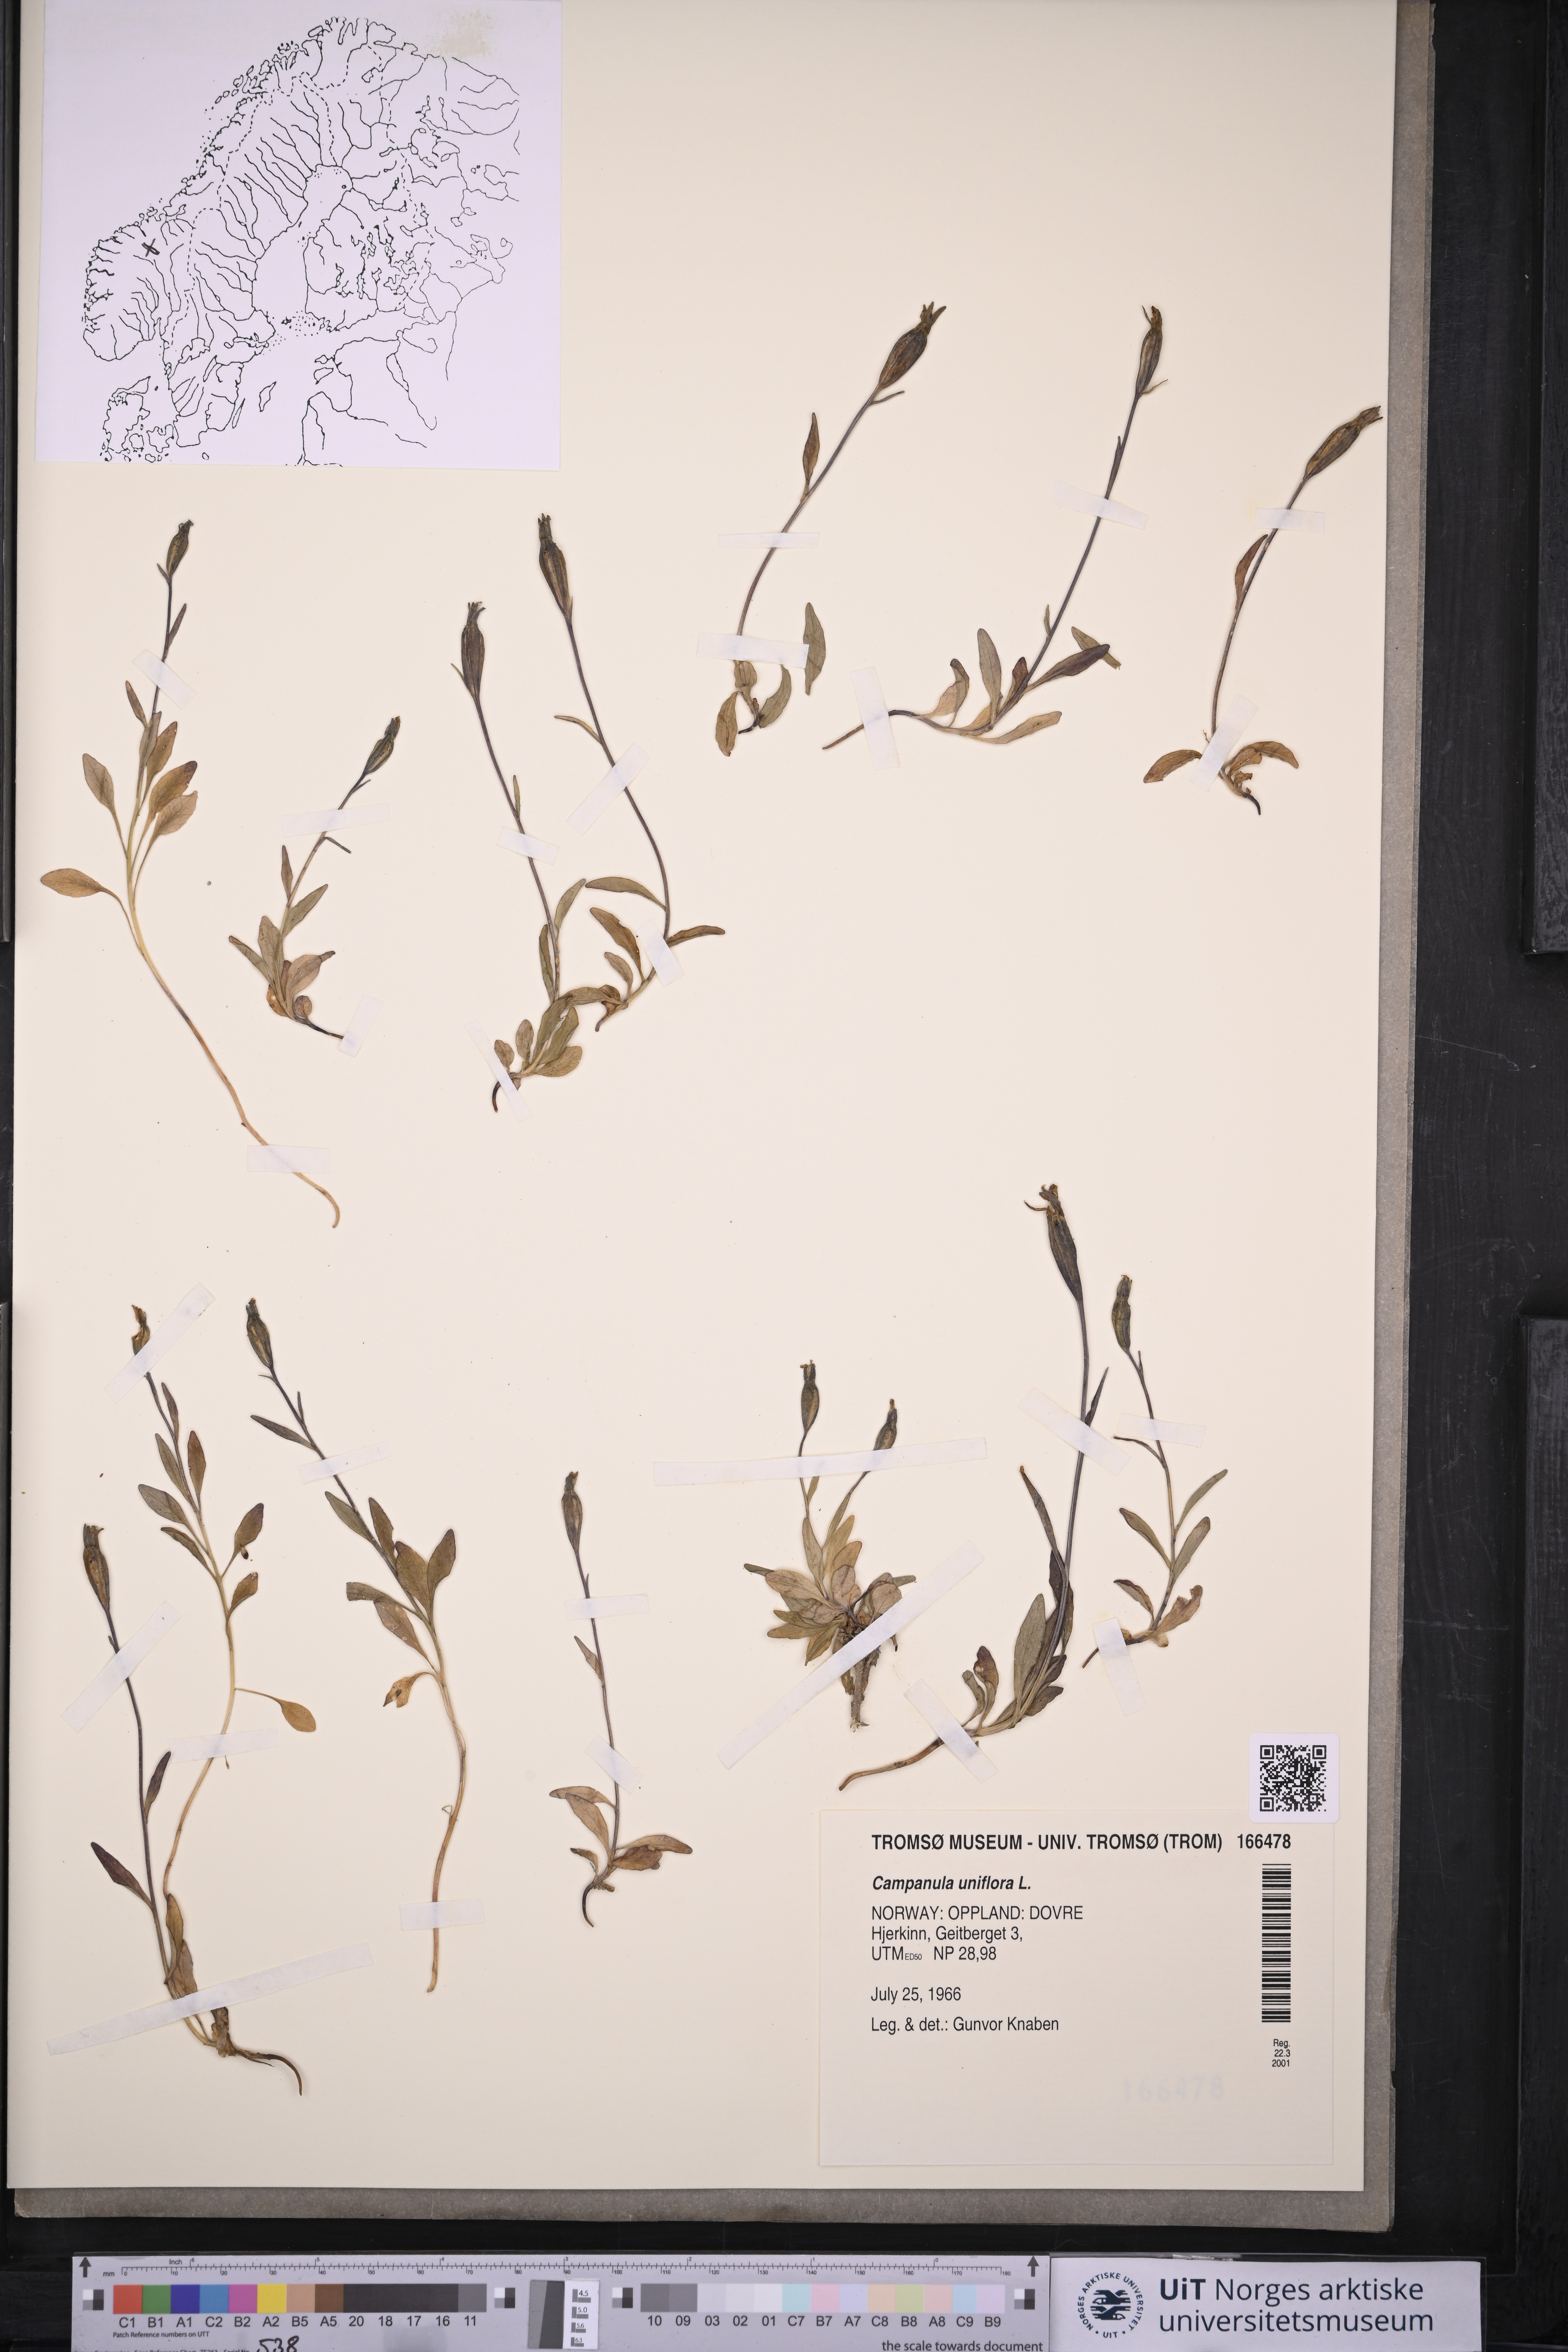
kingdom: Plantae
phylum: Tracheophyta
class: Magnoliopsida
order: Asterales
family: Campanulaceae
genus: Melanocalyx
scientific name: Melanocalyx uniflora
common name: Alpine harebell
